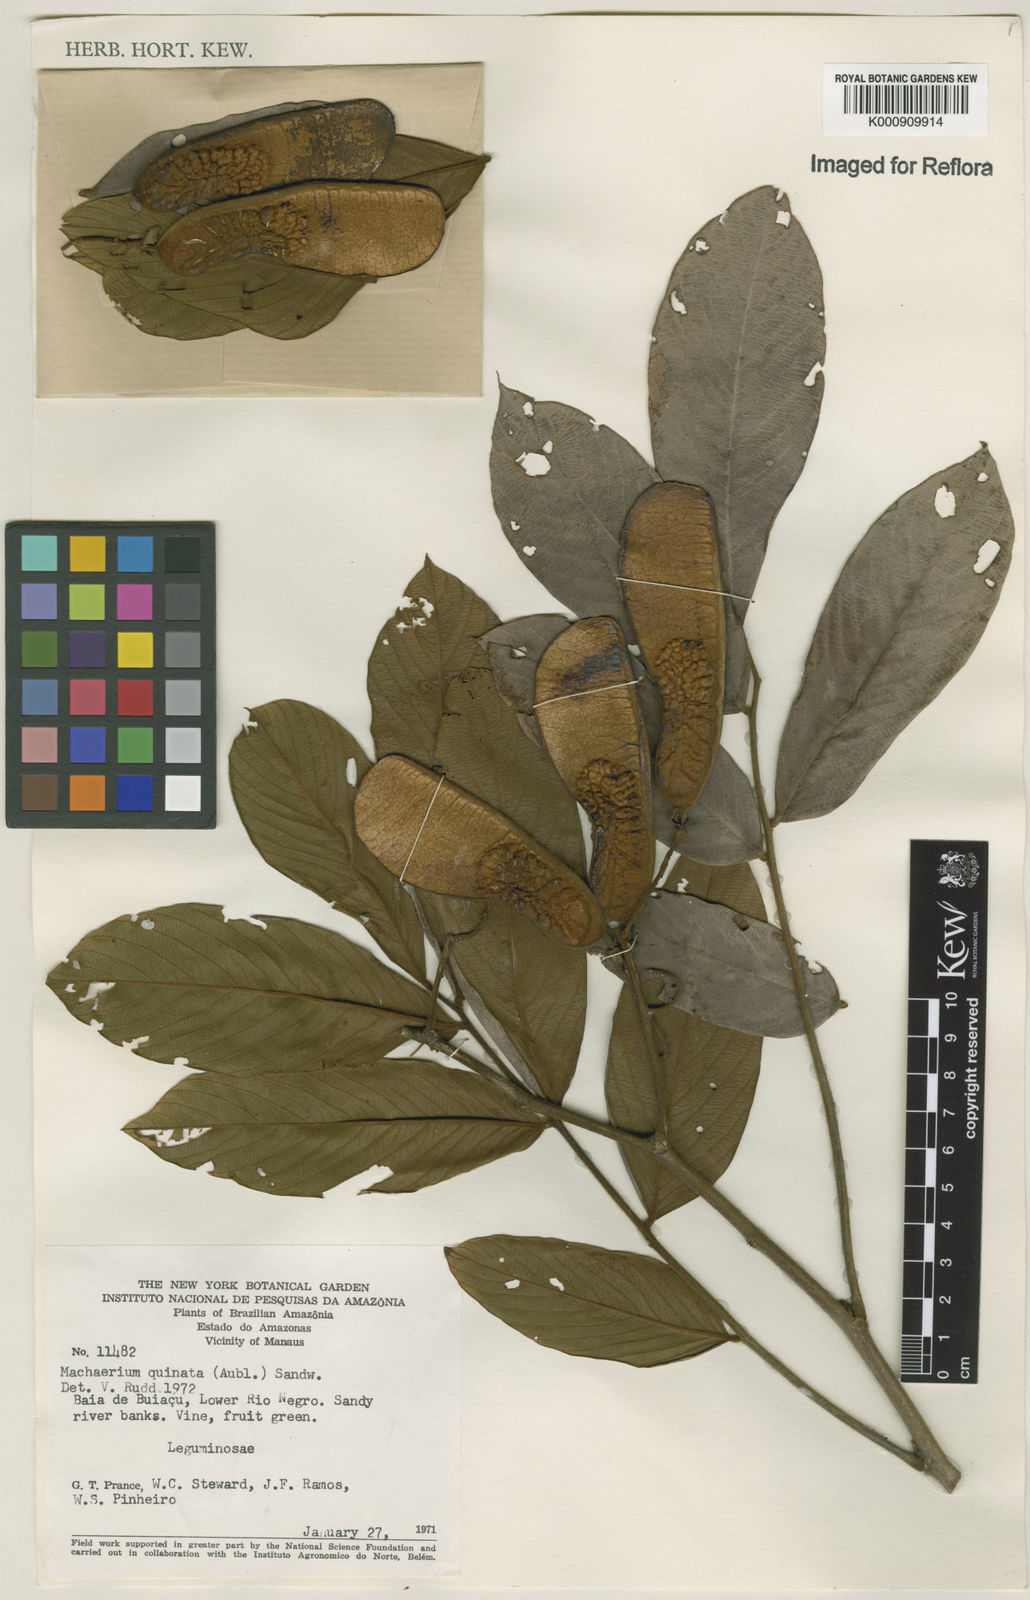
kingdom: Plantae
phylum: Tracheophyta
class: Magnoliopsida
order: Fabales
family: Fabaceae
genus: Machaerium
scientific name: Machaerium quinata
